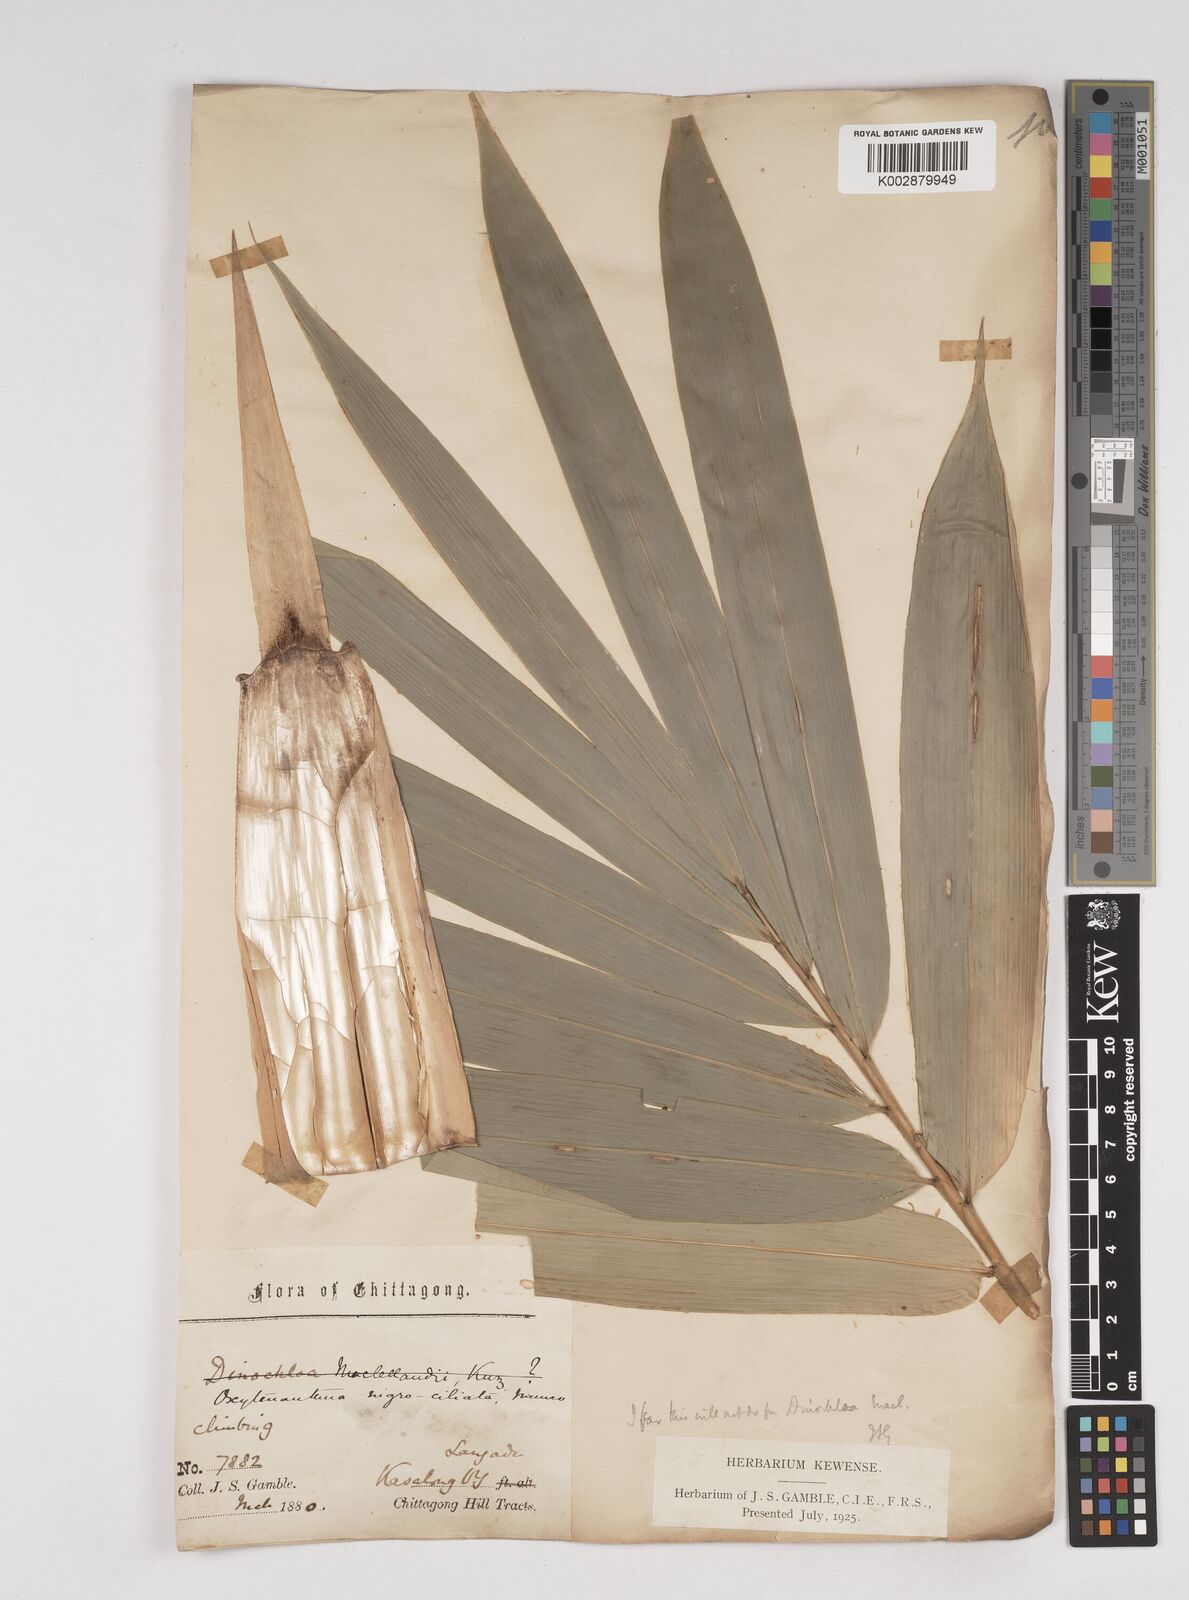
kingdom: Plantae
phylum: Tracheophyta
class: Liliopsida
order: Poales
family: Poaceae
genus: Gigantochloa
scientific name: Gigantochloa nigrociliata
